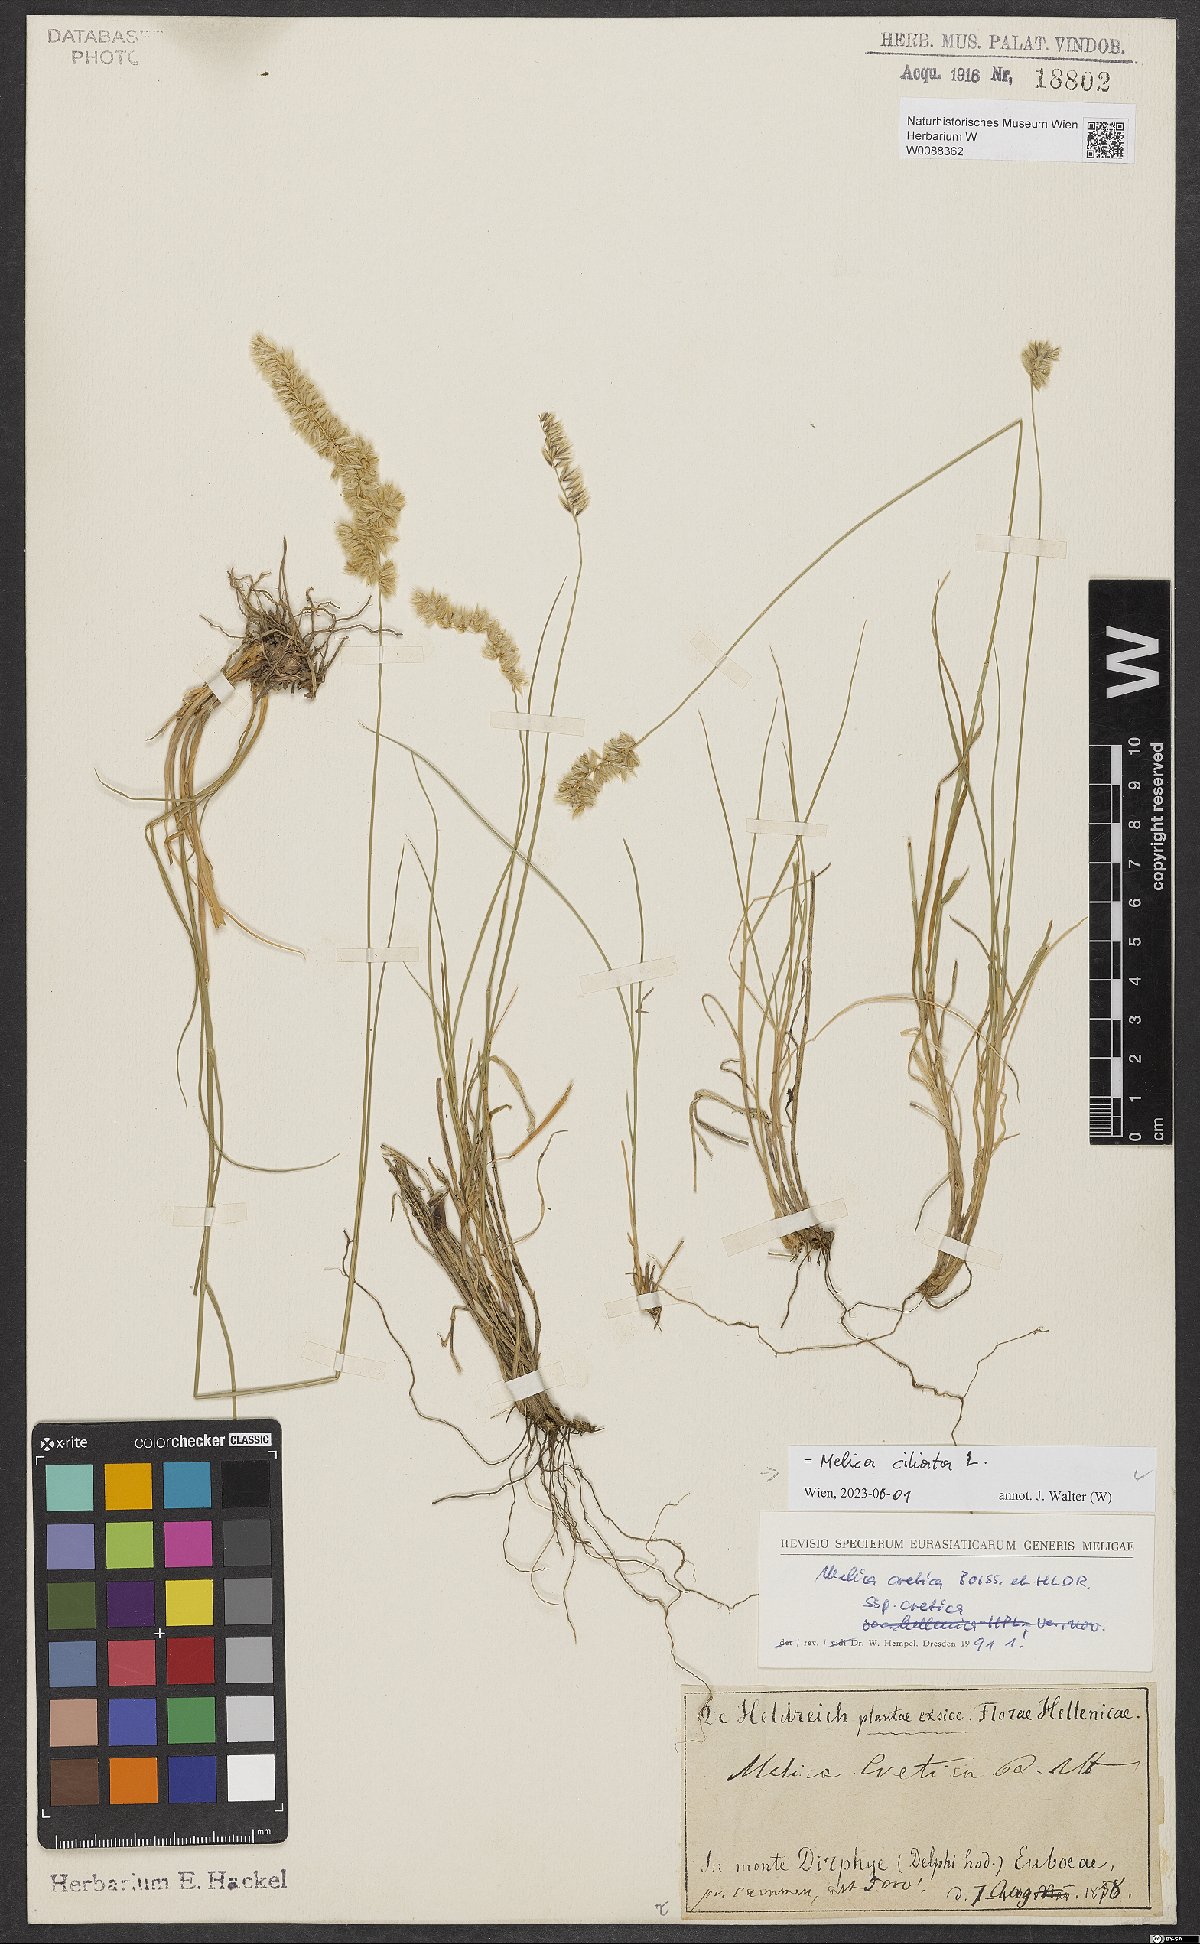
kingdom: Plantae
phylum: Tracheophyta
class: Liliopsida
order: Poales
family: Poaceae
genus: Melica
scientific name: Melica ciliata
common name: Hairy melicgrass
